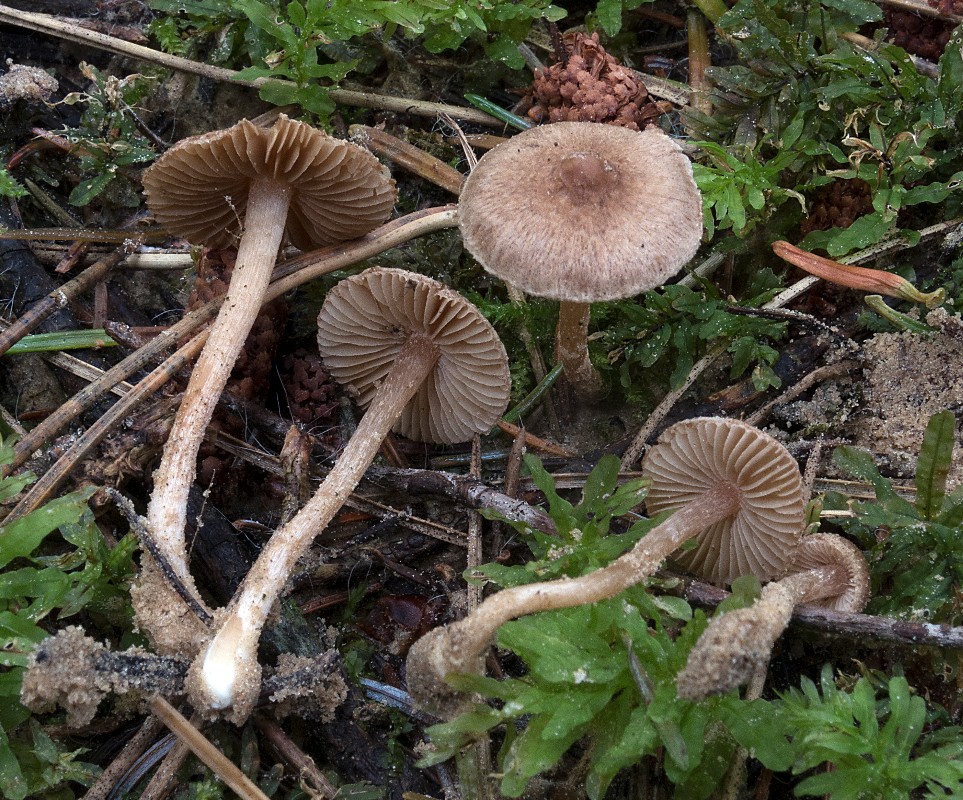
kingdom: Fungi
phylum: Basidiomycota
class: Agaricomycetes
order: Agaricales
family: Inocybaceae
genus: Inocybe
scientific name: Inocybe laurina
